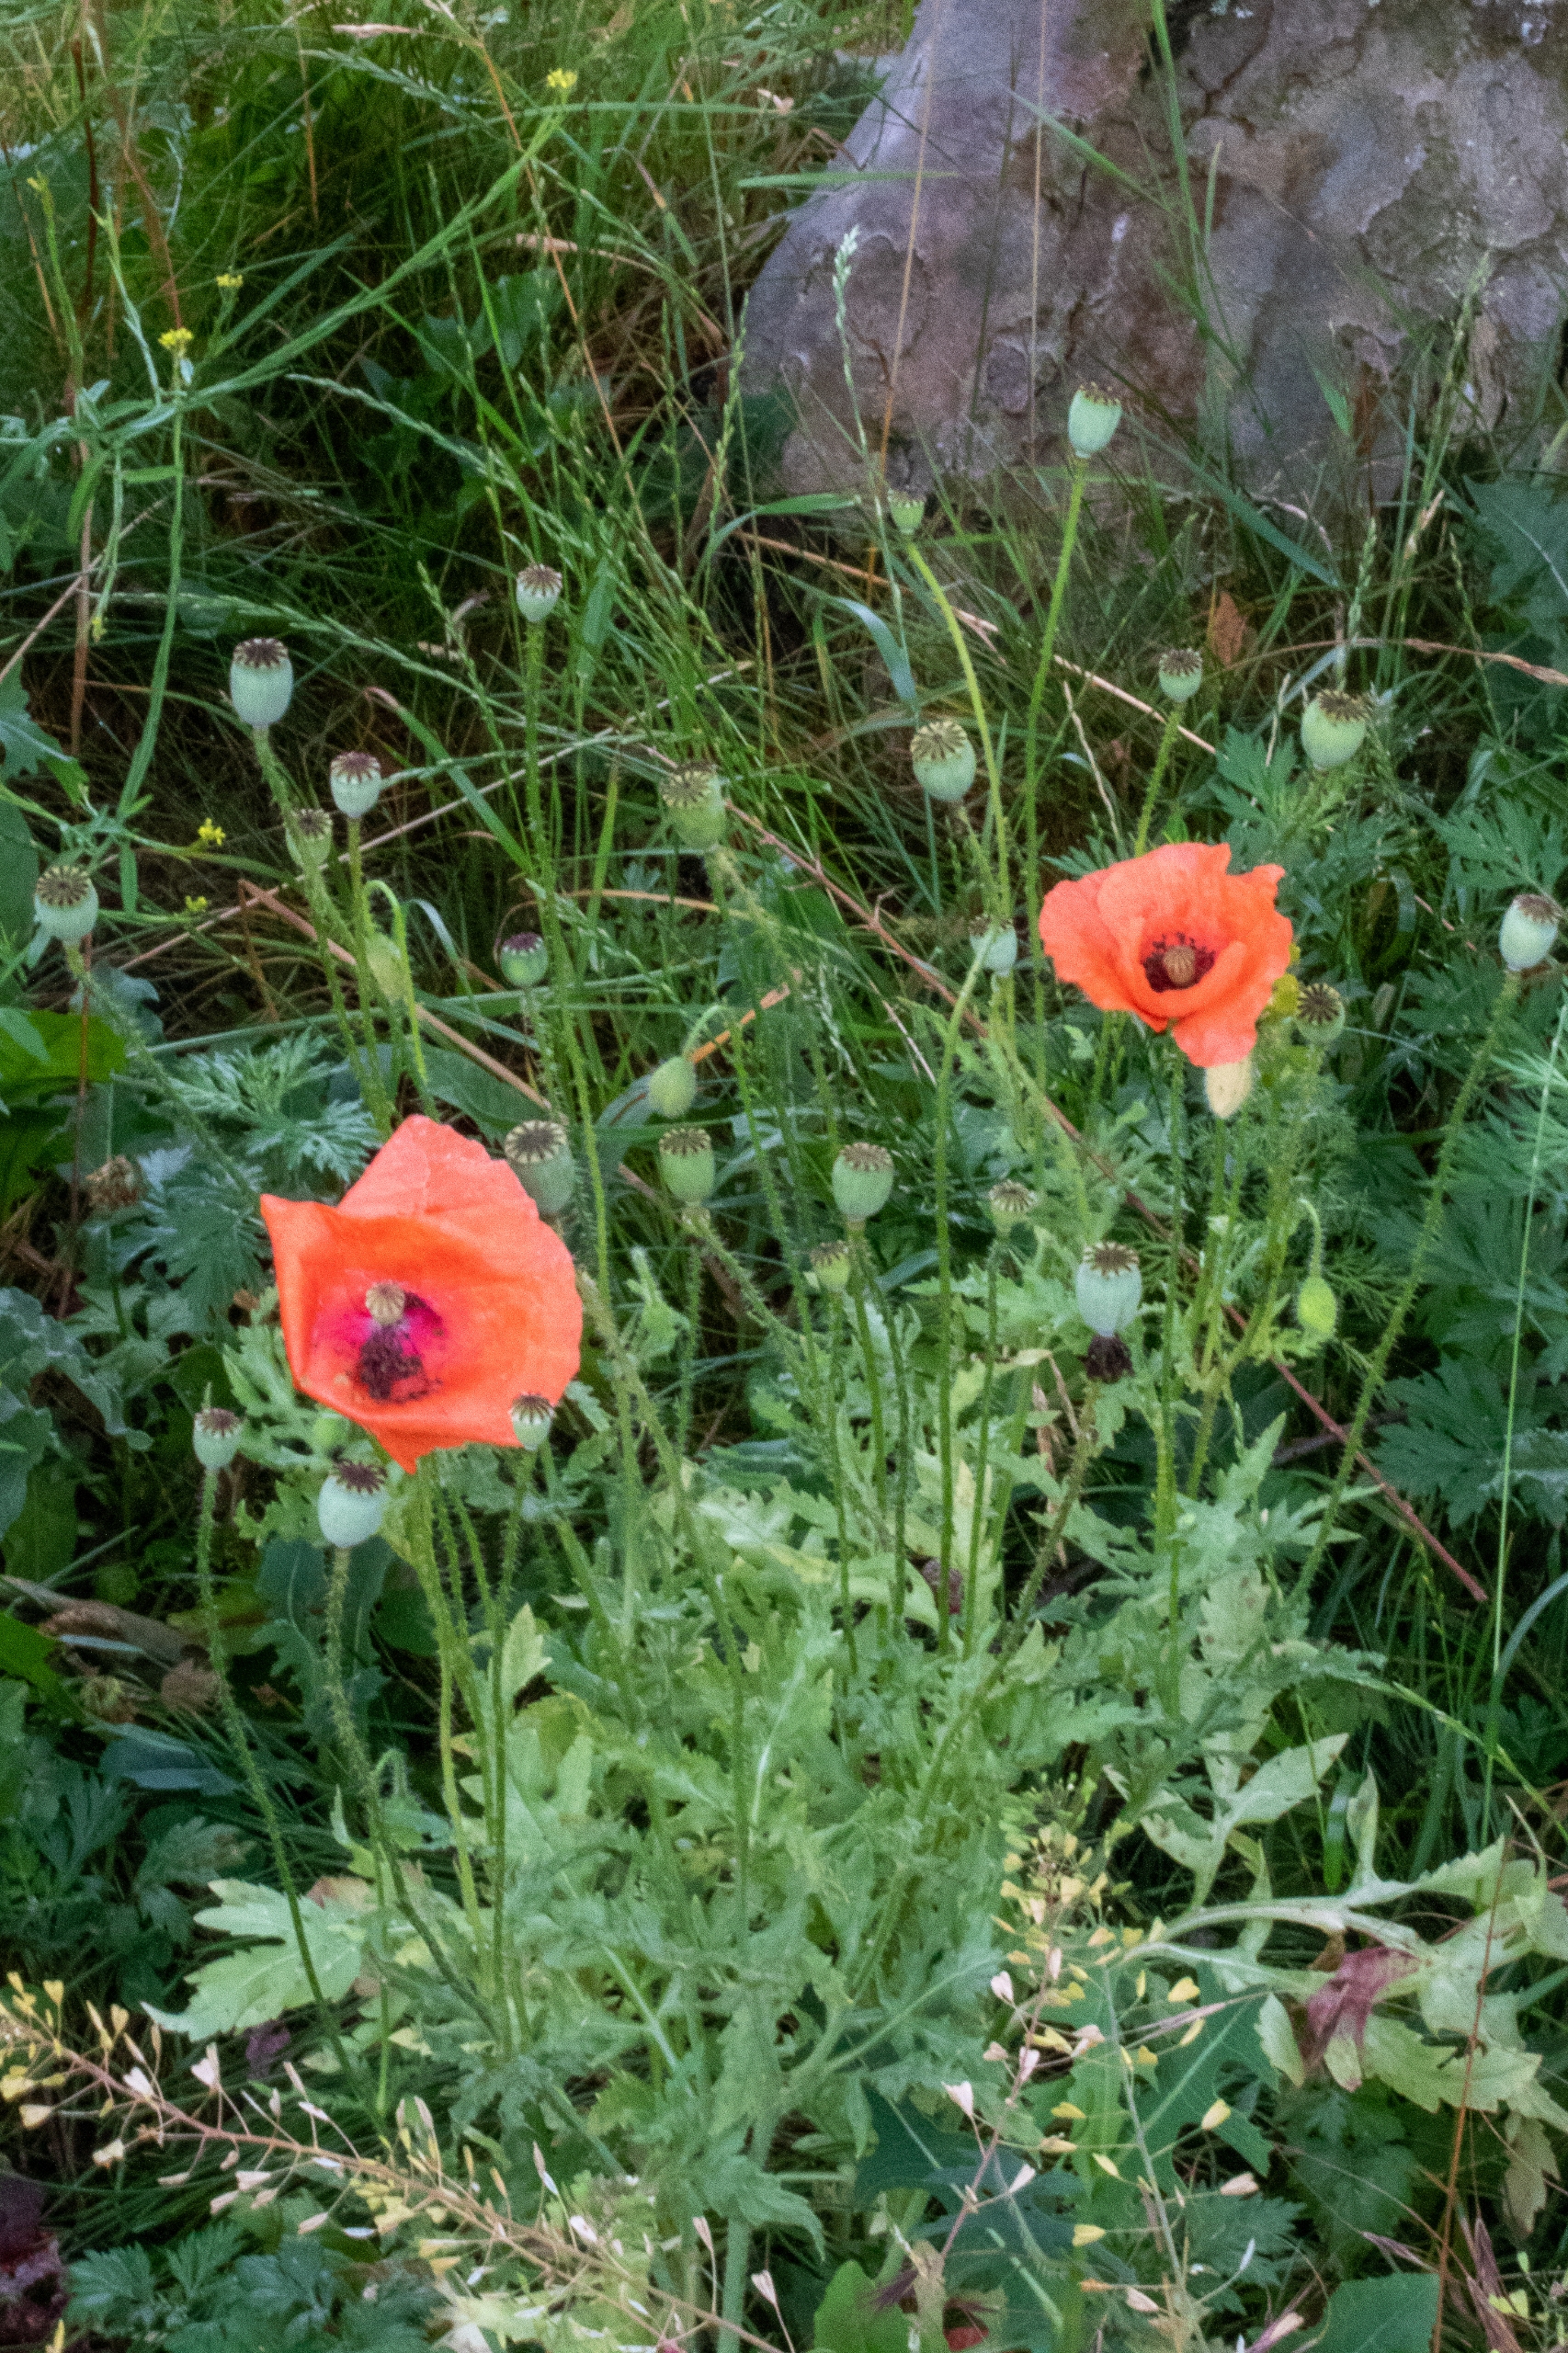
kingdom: Plantae
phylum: Tracheophyta
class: Magnoliopsida
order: Ranunculales
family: Papaveraceae
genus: Papaver
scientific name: Papaver rhoeas
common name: Korn-valmue
